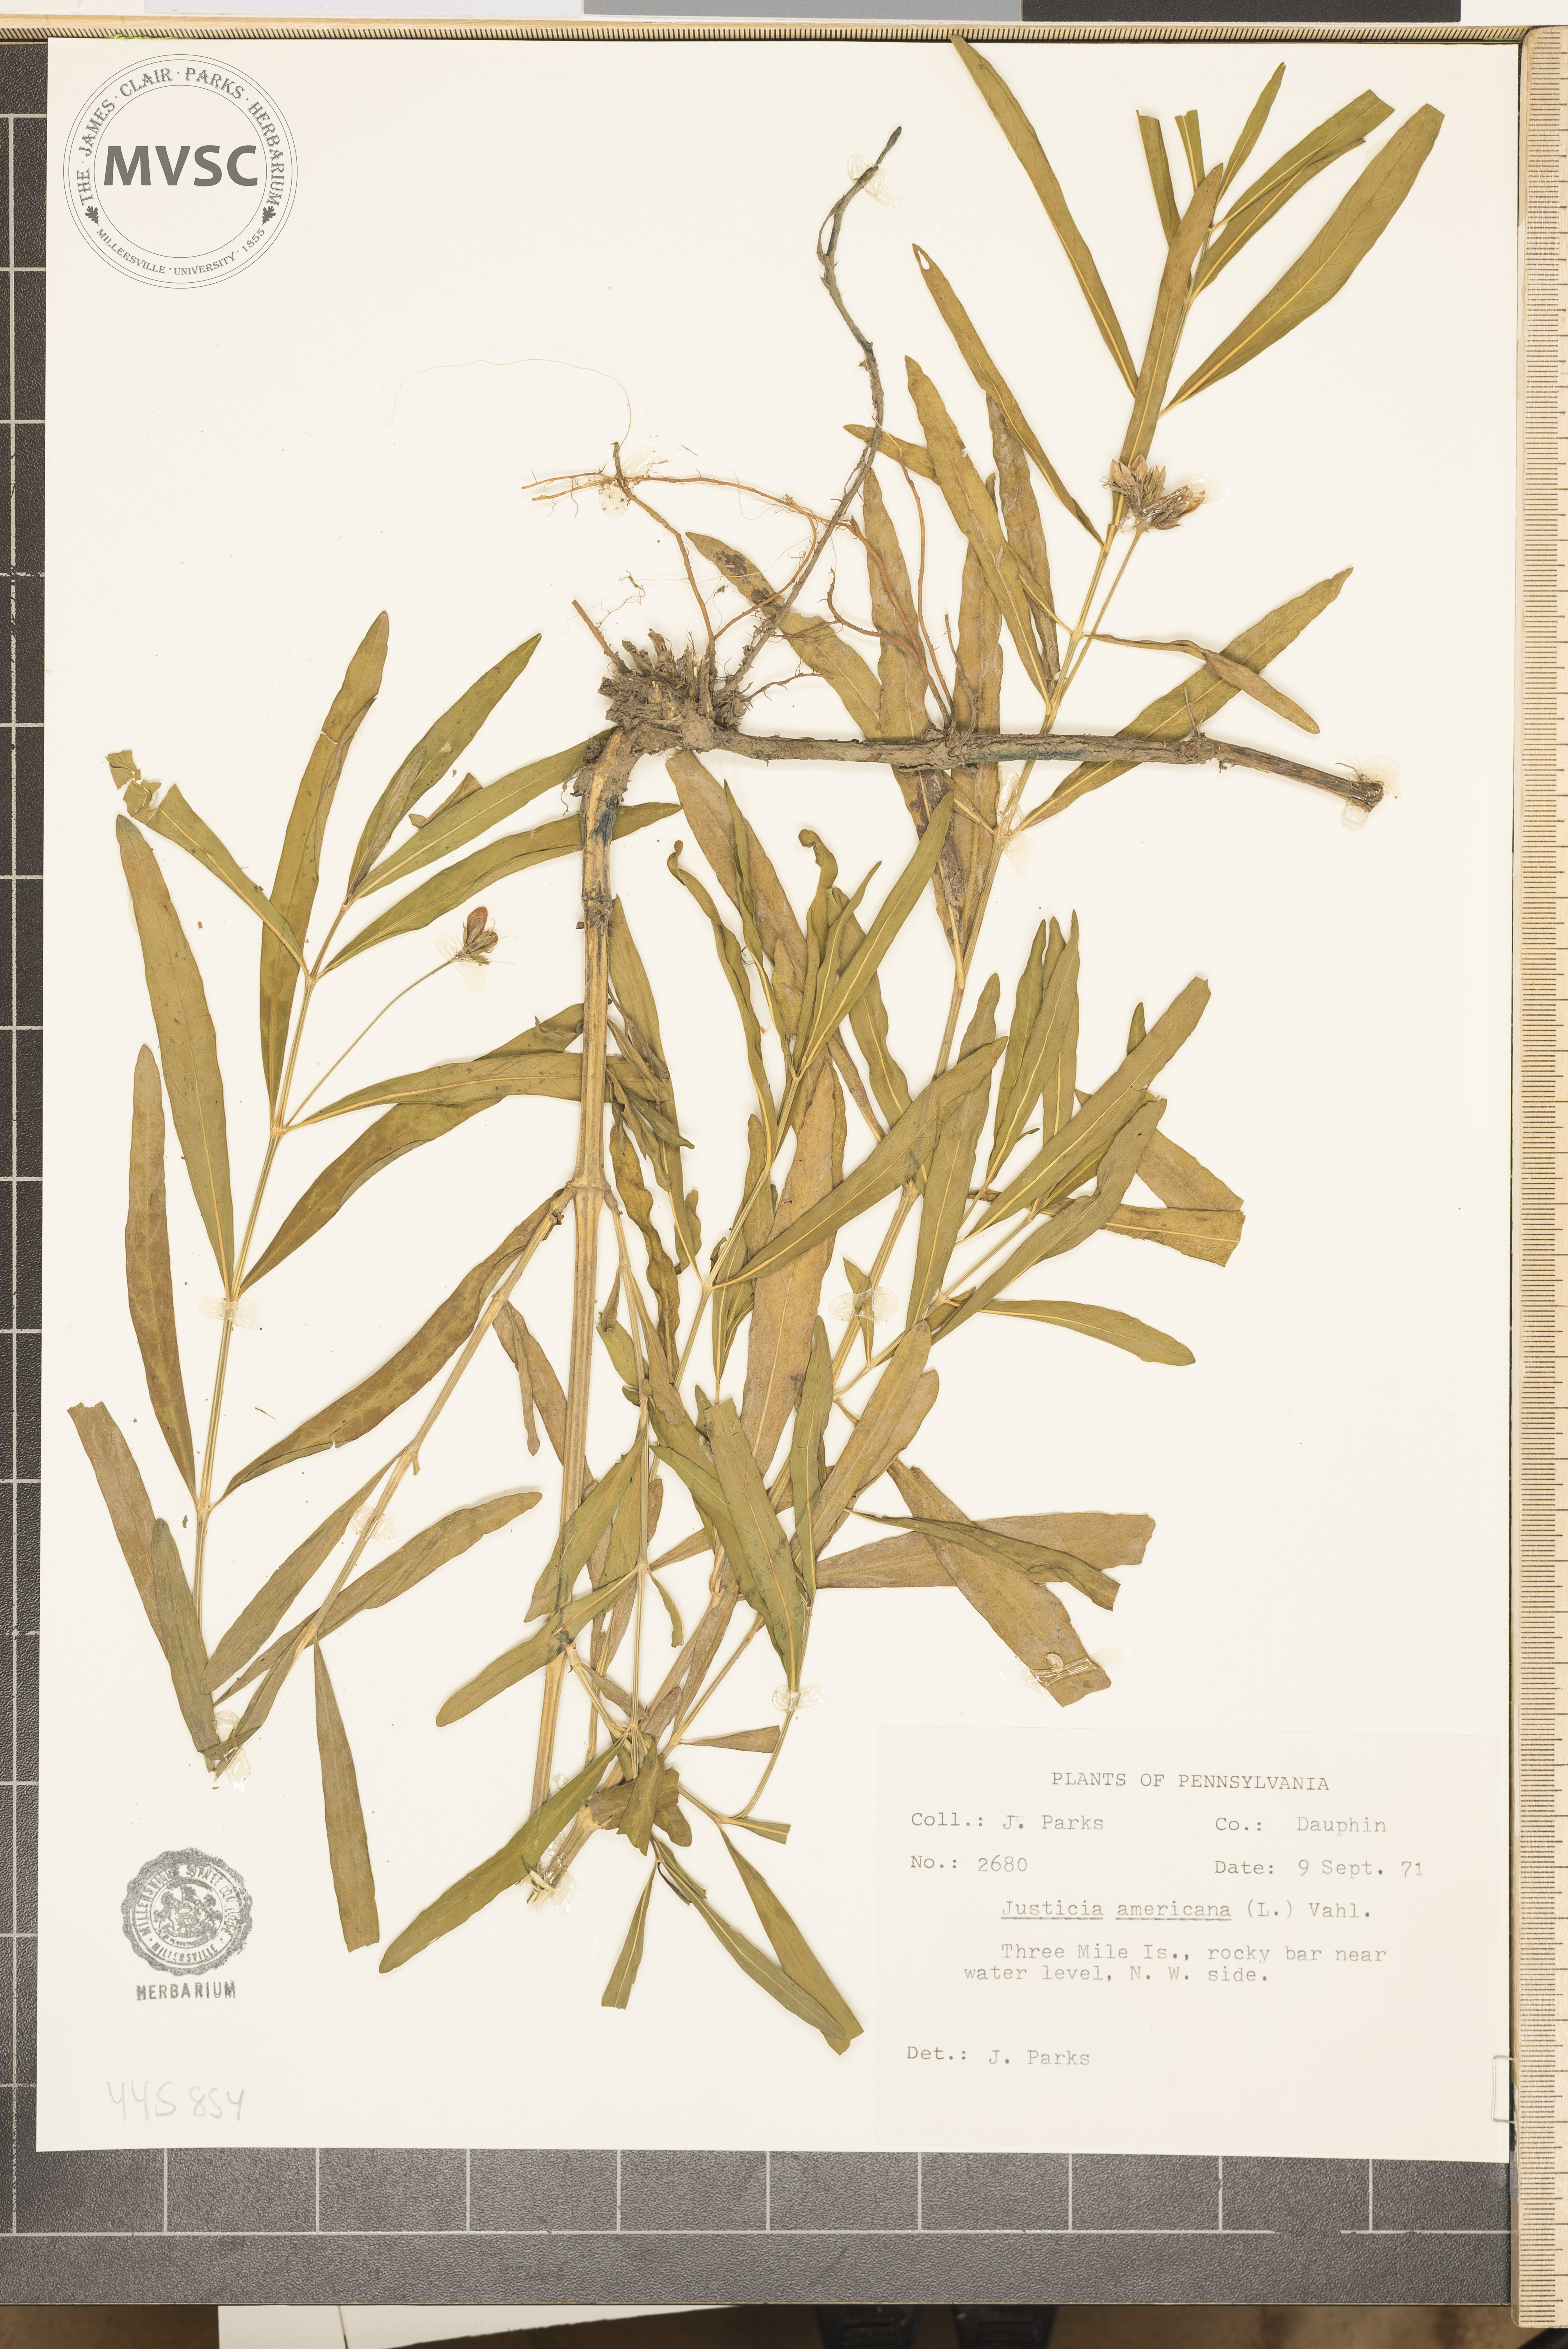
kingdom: Plantae
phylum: Tracheophyta
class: Magnoliopsida
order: Lamiales
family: Acanthaceae
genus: Dianthera
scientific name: Dianthera americana
